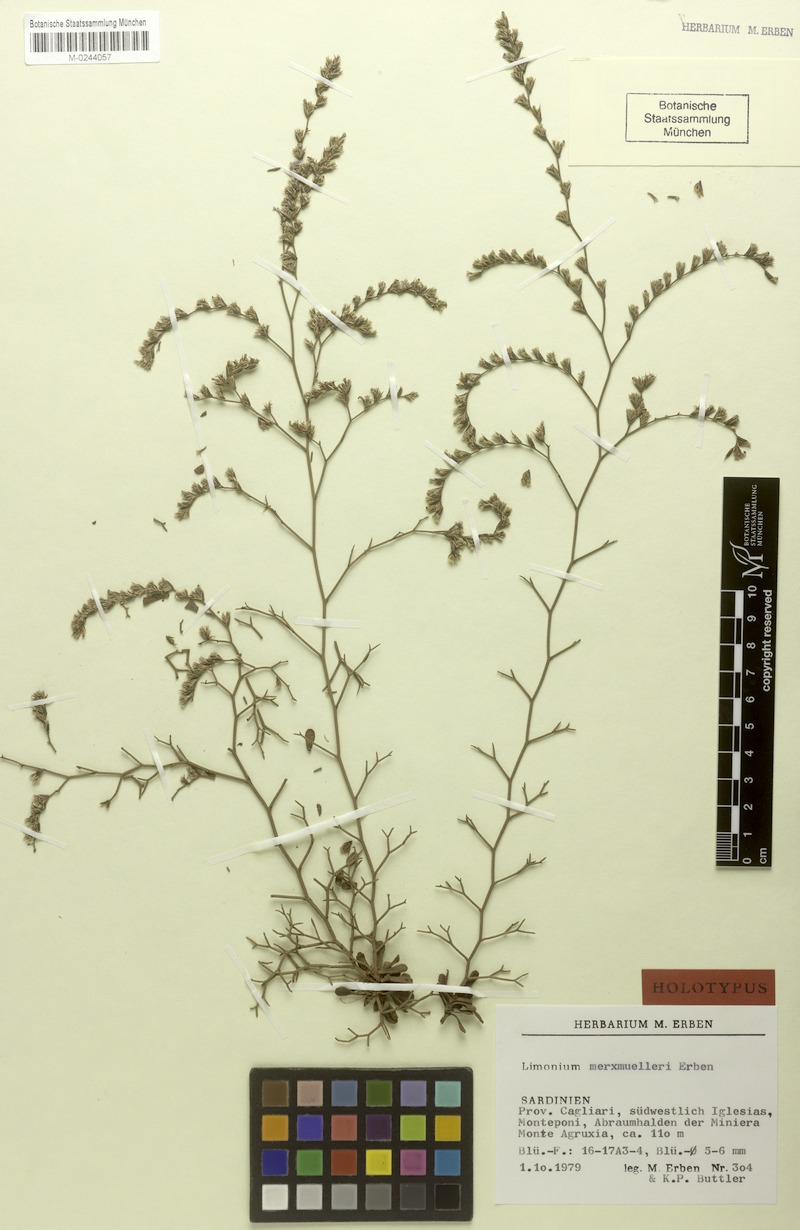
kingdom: Plantae
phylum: Tracheophyta
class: Magnoliopsida
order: Caryophyllales
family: Plumbaginaceae
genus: Limonium
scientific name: Limonium merxmuelleri
